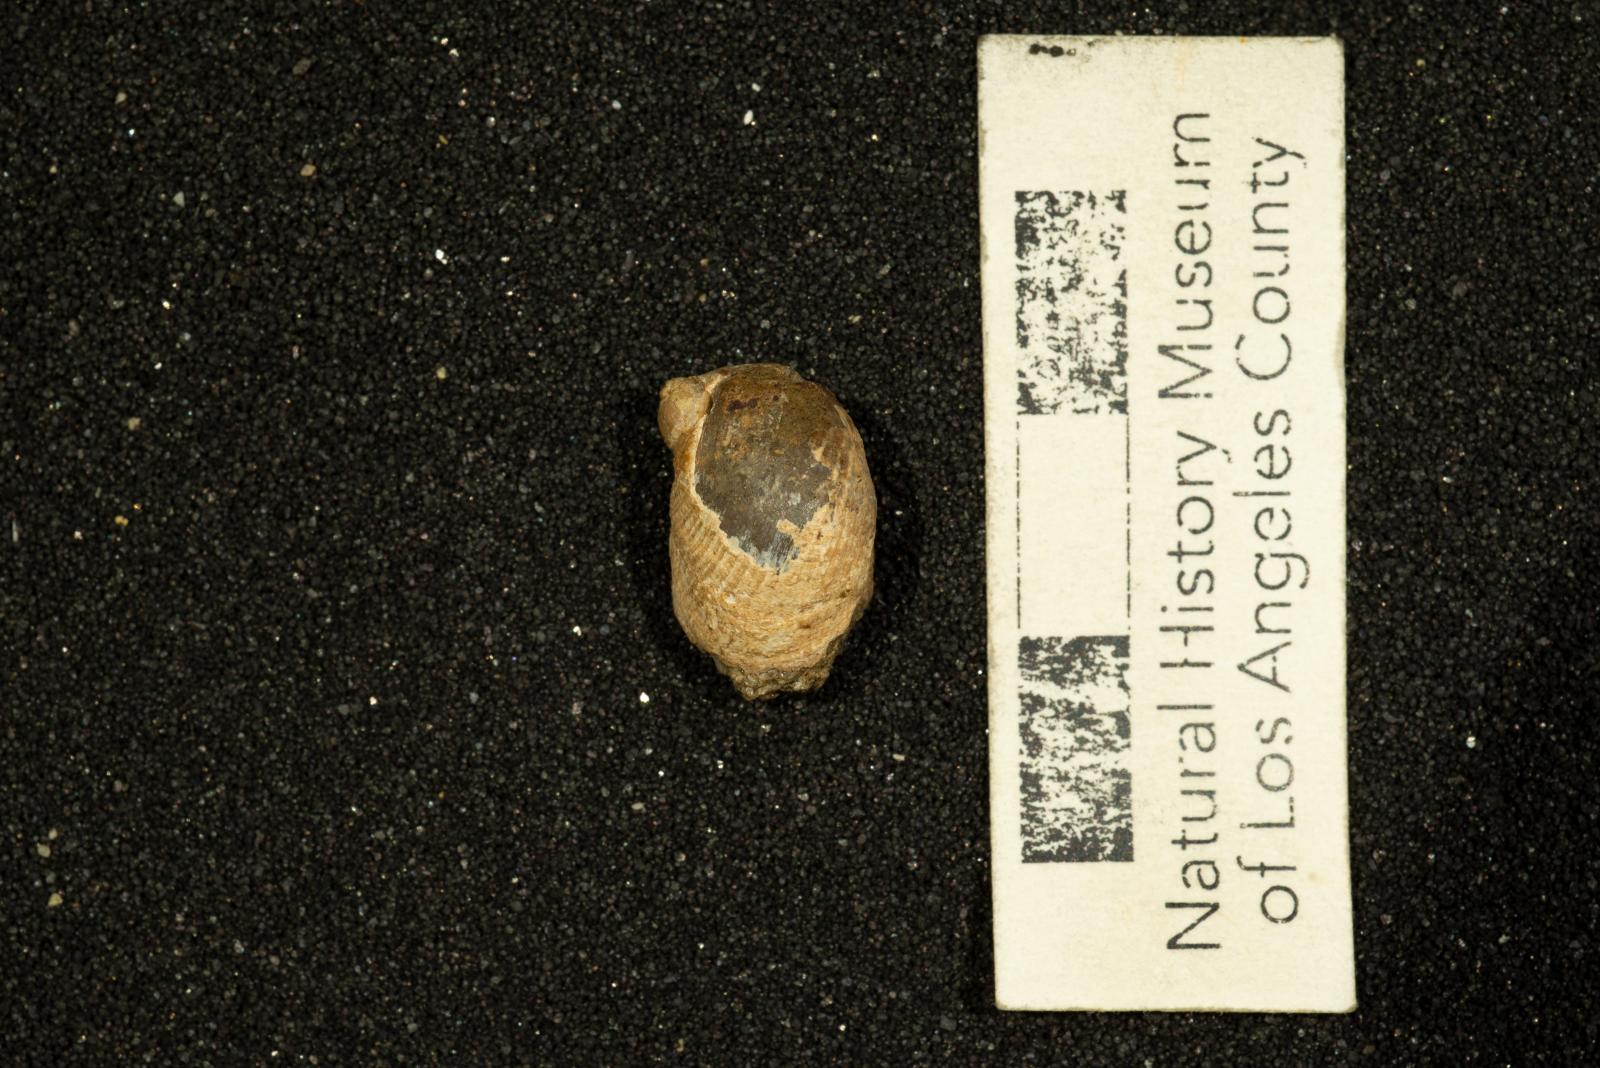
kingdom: Animalia
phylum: Mollusca
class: Gastropoda
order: Littorinimorpha
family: Calyptraeidae
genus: Lysis
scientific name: Lysis Stomatia suciensis
